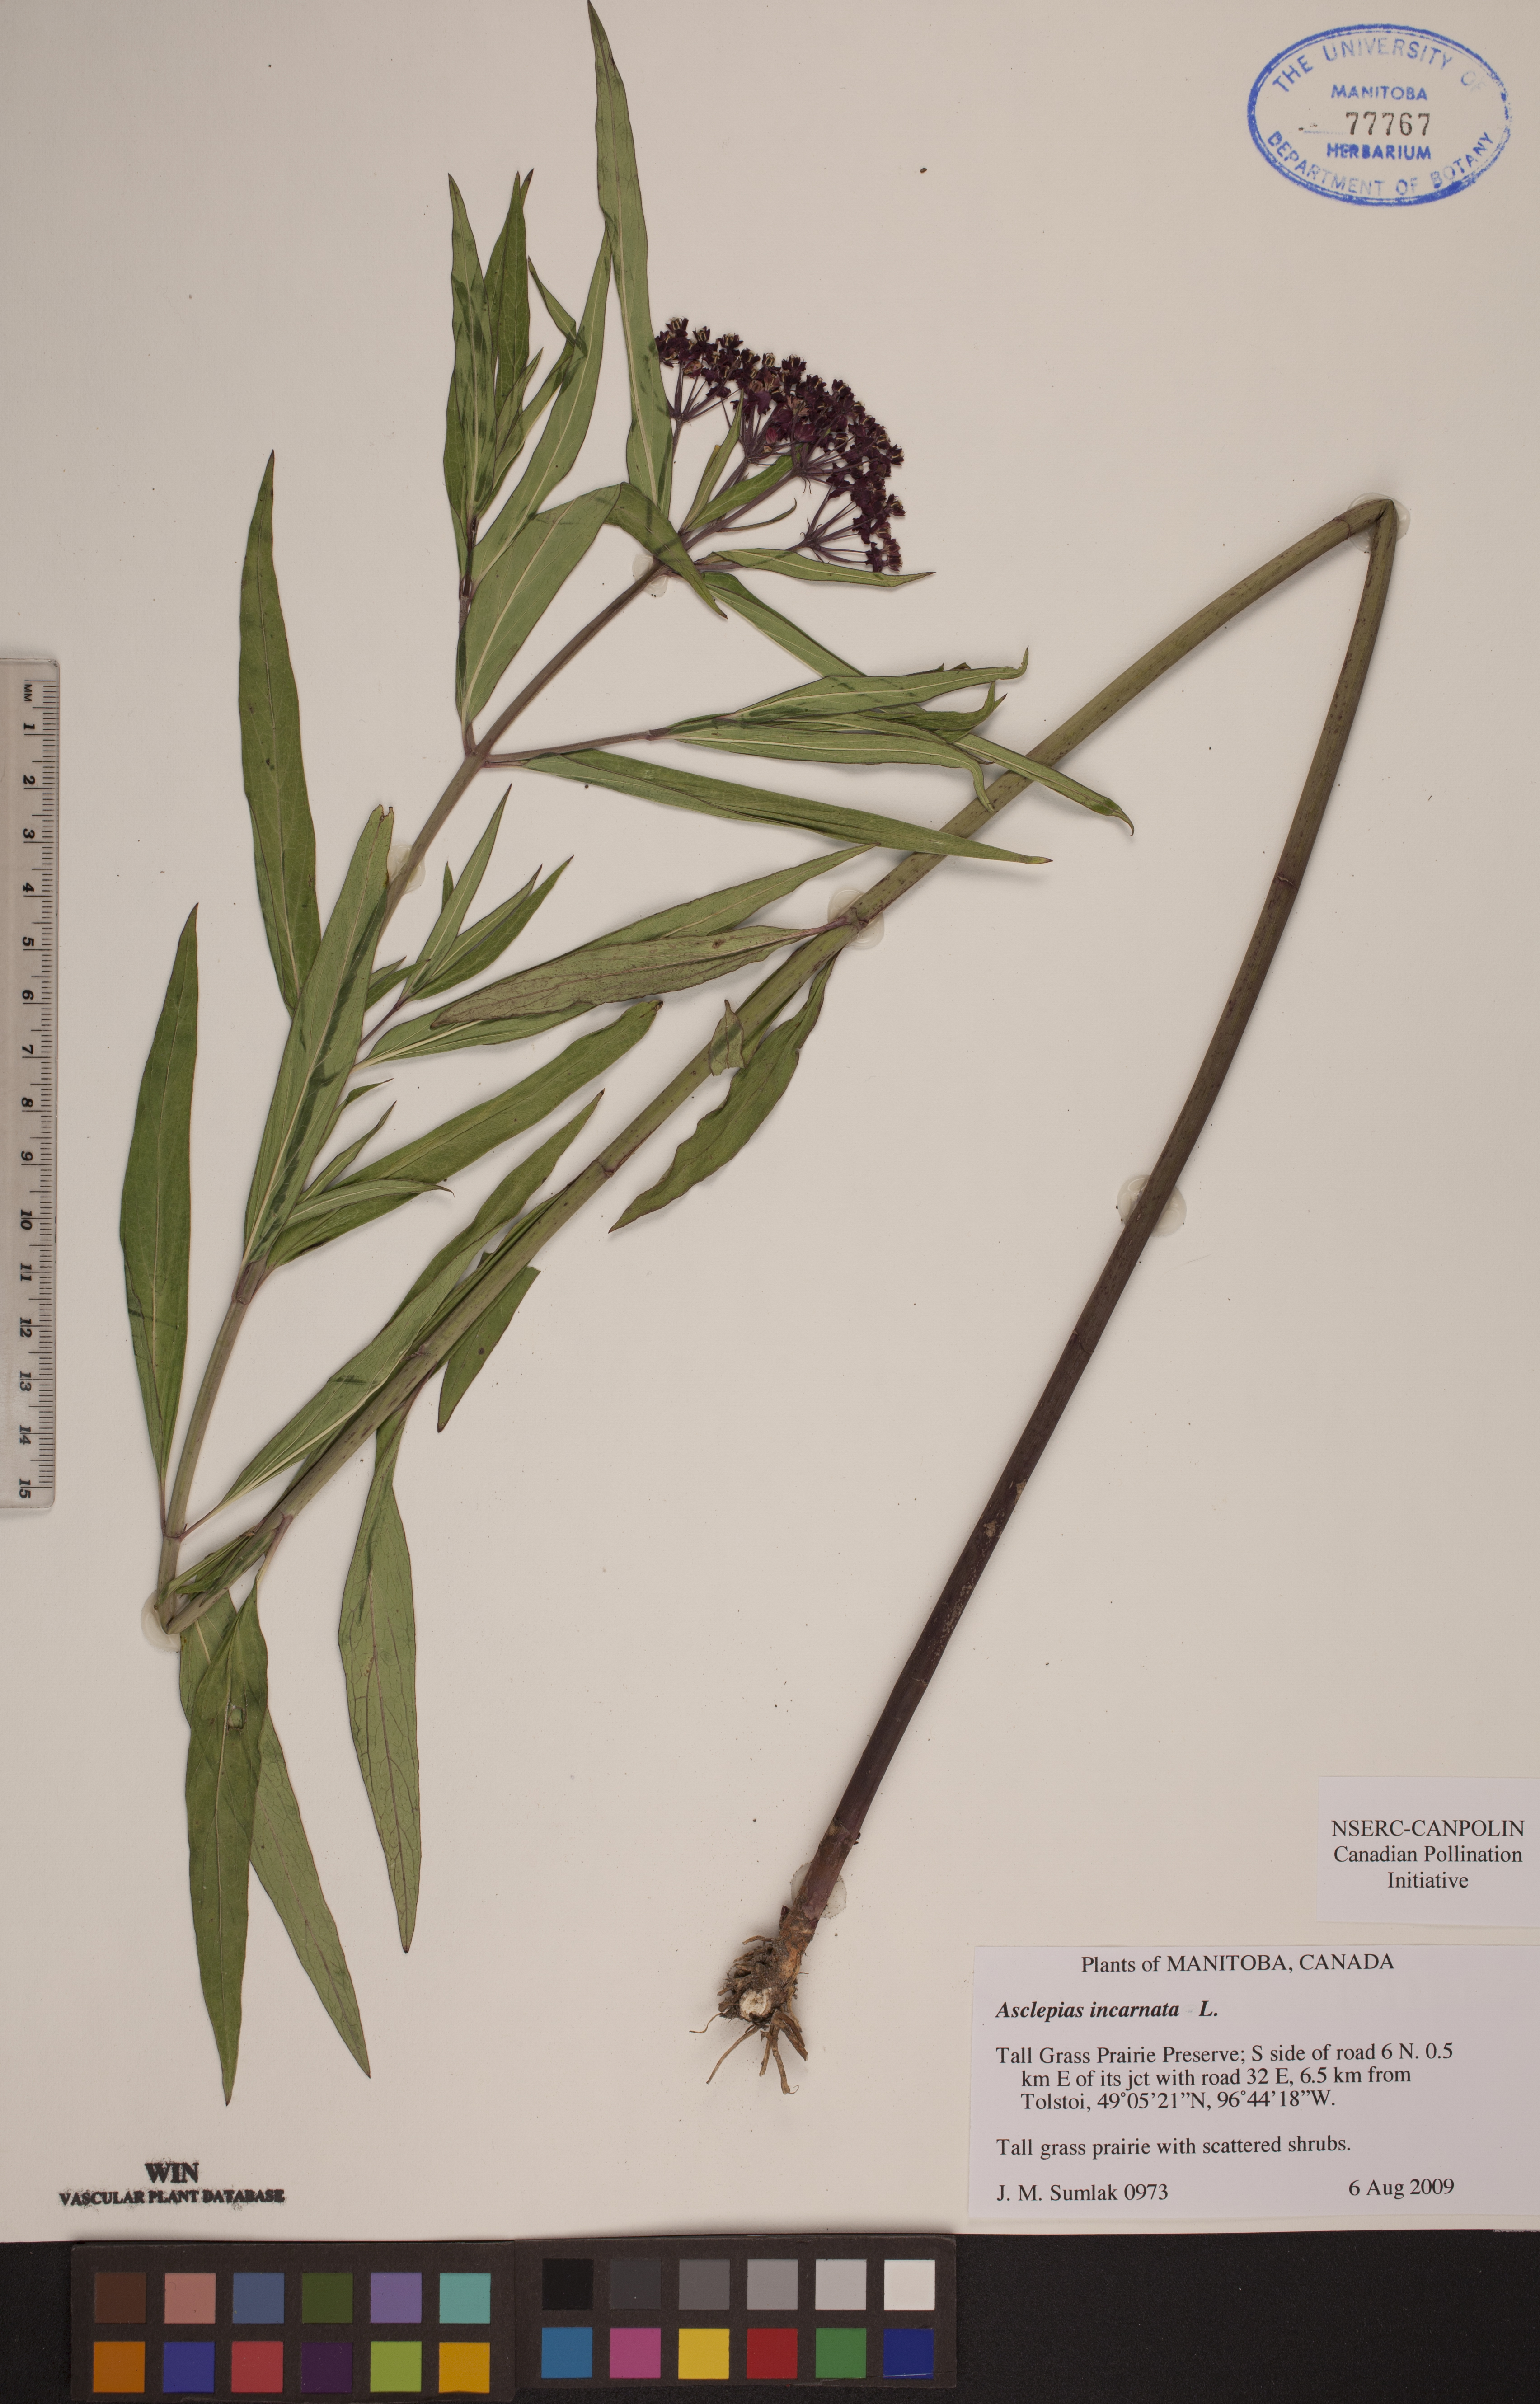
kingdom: Plantae
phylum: Tracheophyta
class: Magnoliopsida
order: Gentianales
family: Apocynaceae
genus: Asclepias
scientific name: Asclepias incarnata
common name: Swamp milkweed
